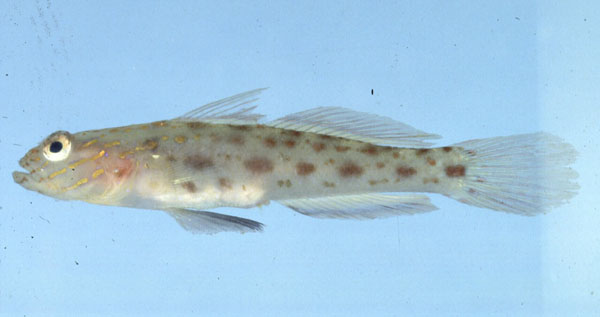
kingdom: Animalia
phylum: Chordata
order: Perciformes
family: Gobiidae
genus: Ctenogobiops
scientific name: Ctenogobiops crocineus
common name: Silverspot shrimpgoby
